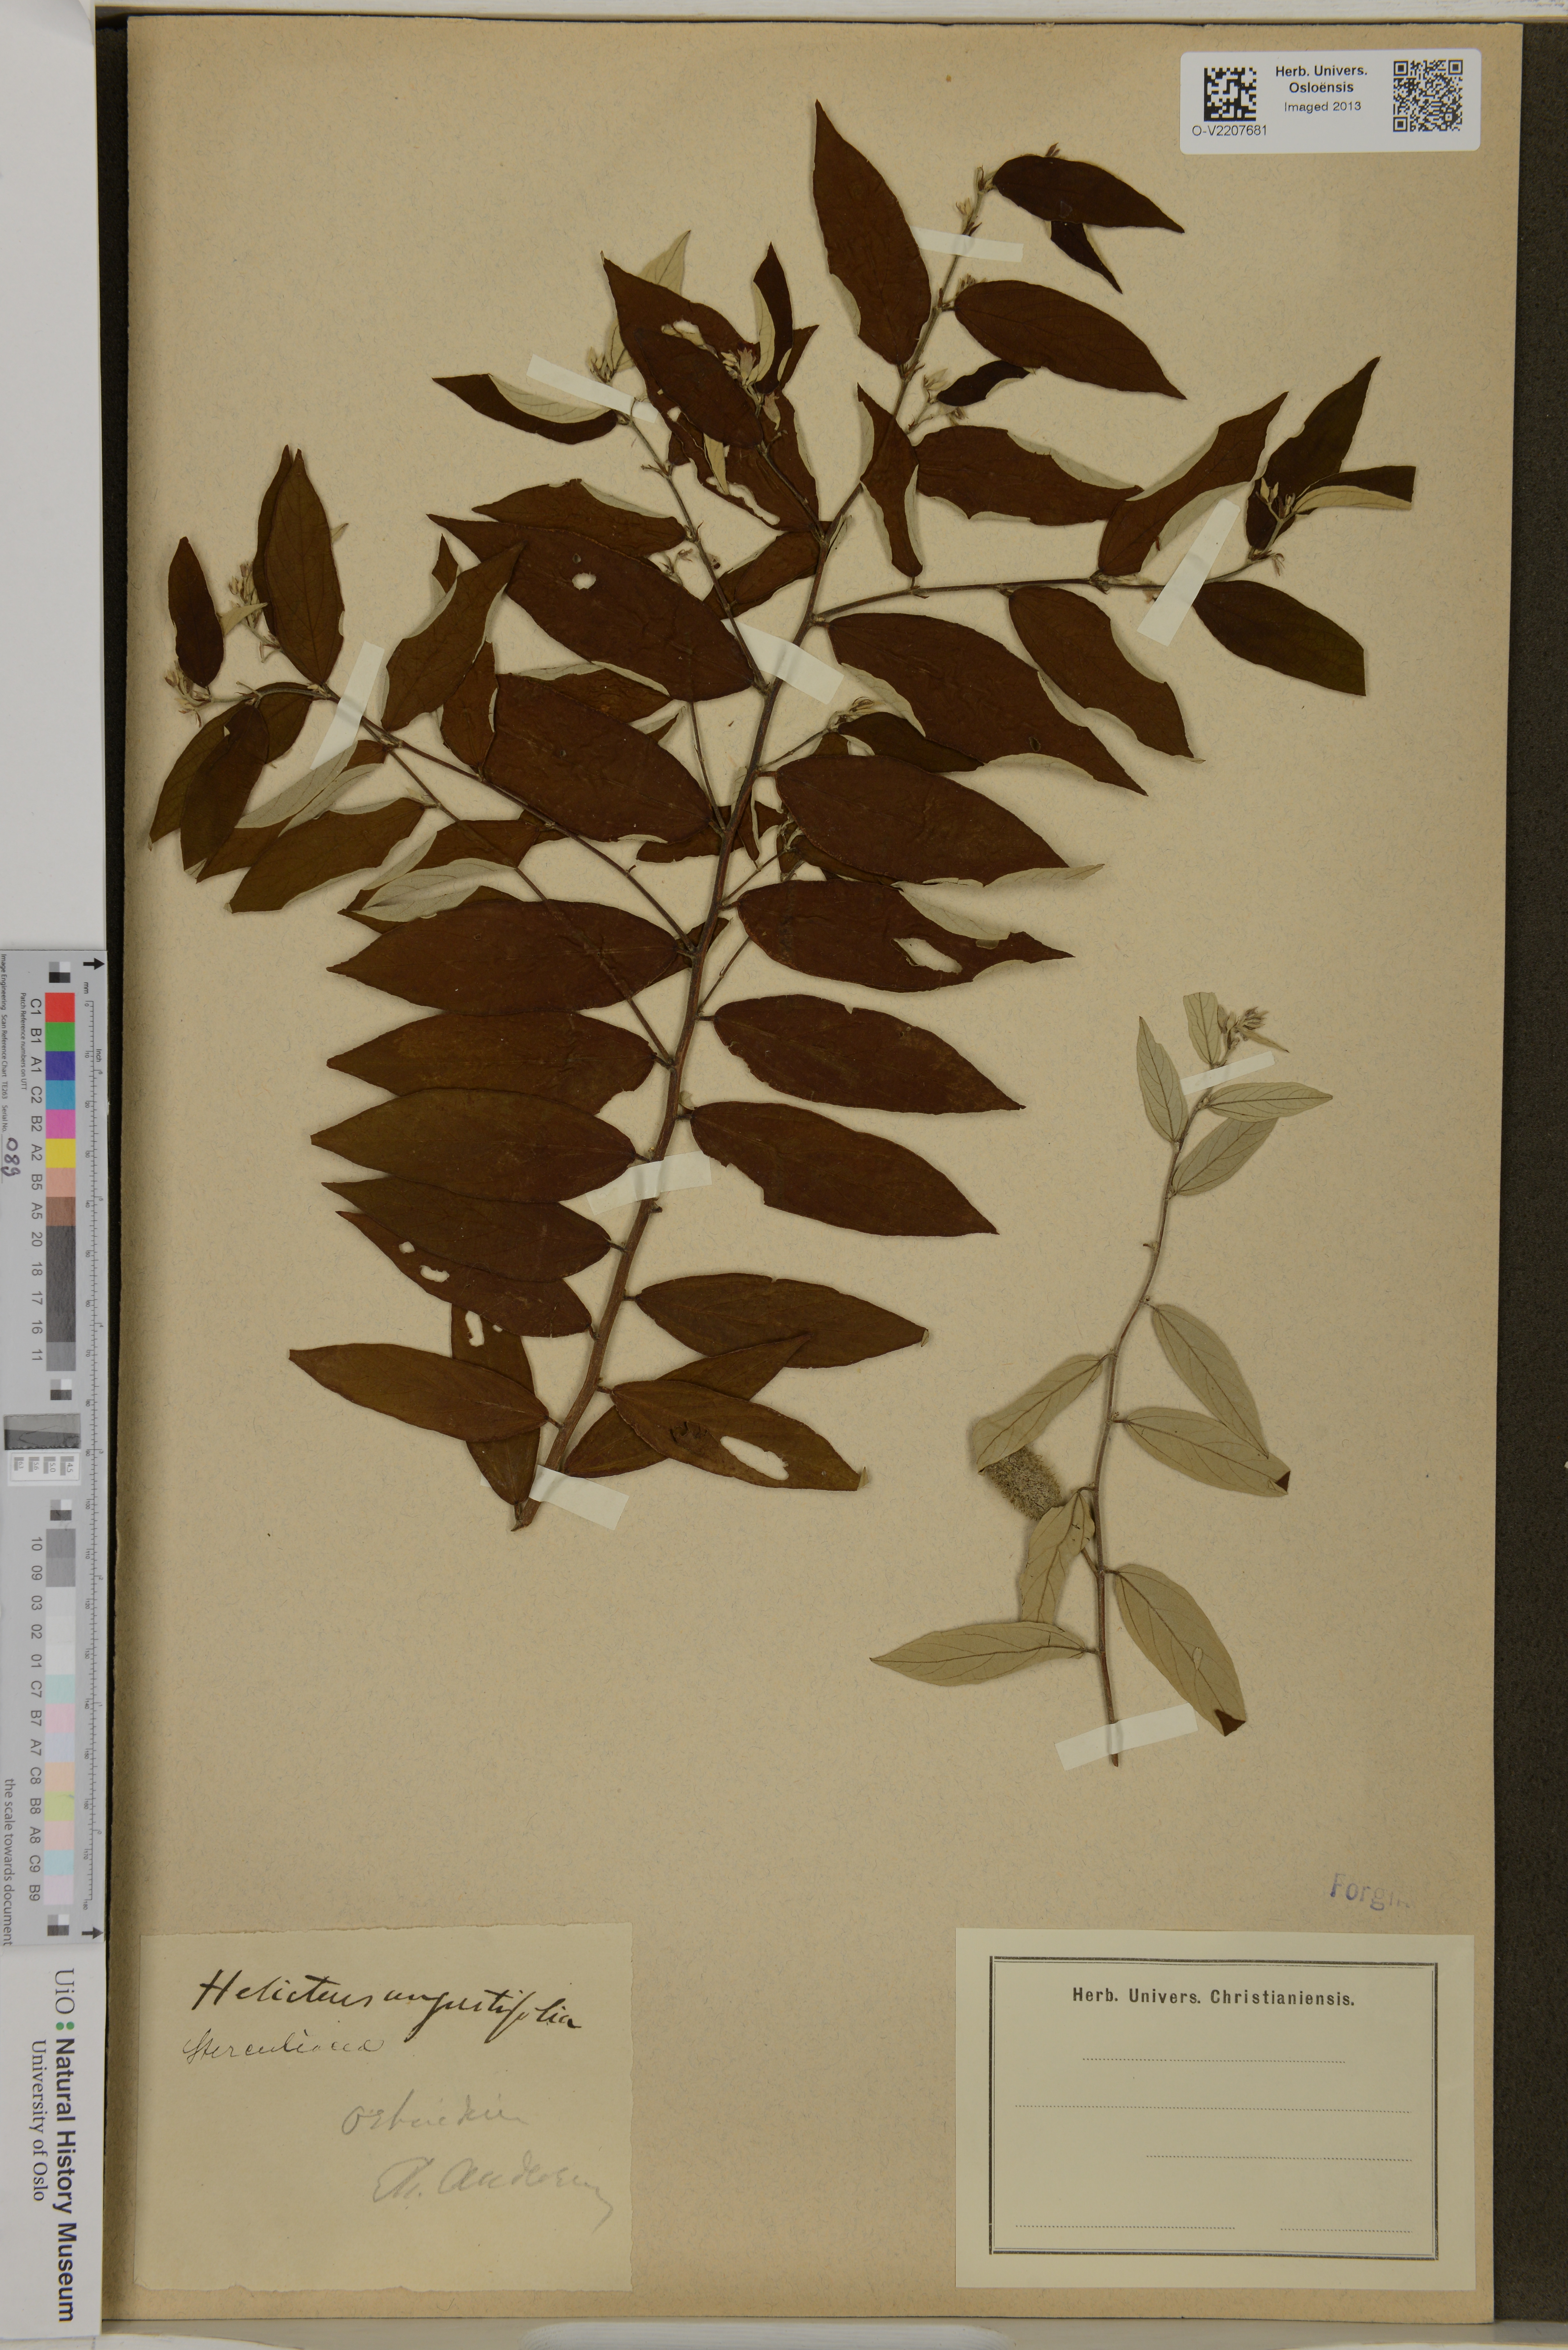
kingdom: Plantae
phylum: Tracheophyta
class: Magnoliopsida
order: Malvales
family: Malvaceae
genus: Helicteres
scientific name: Helicteres angustifolia
